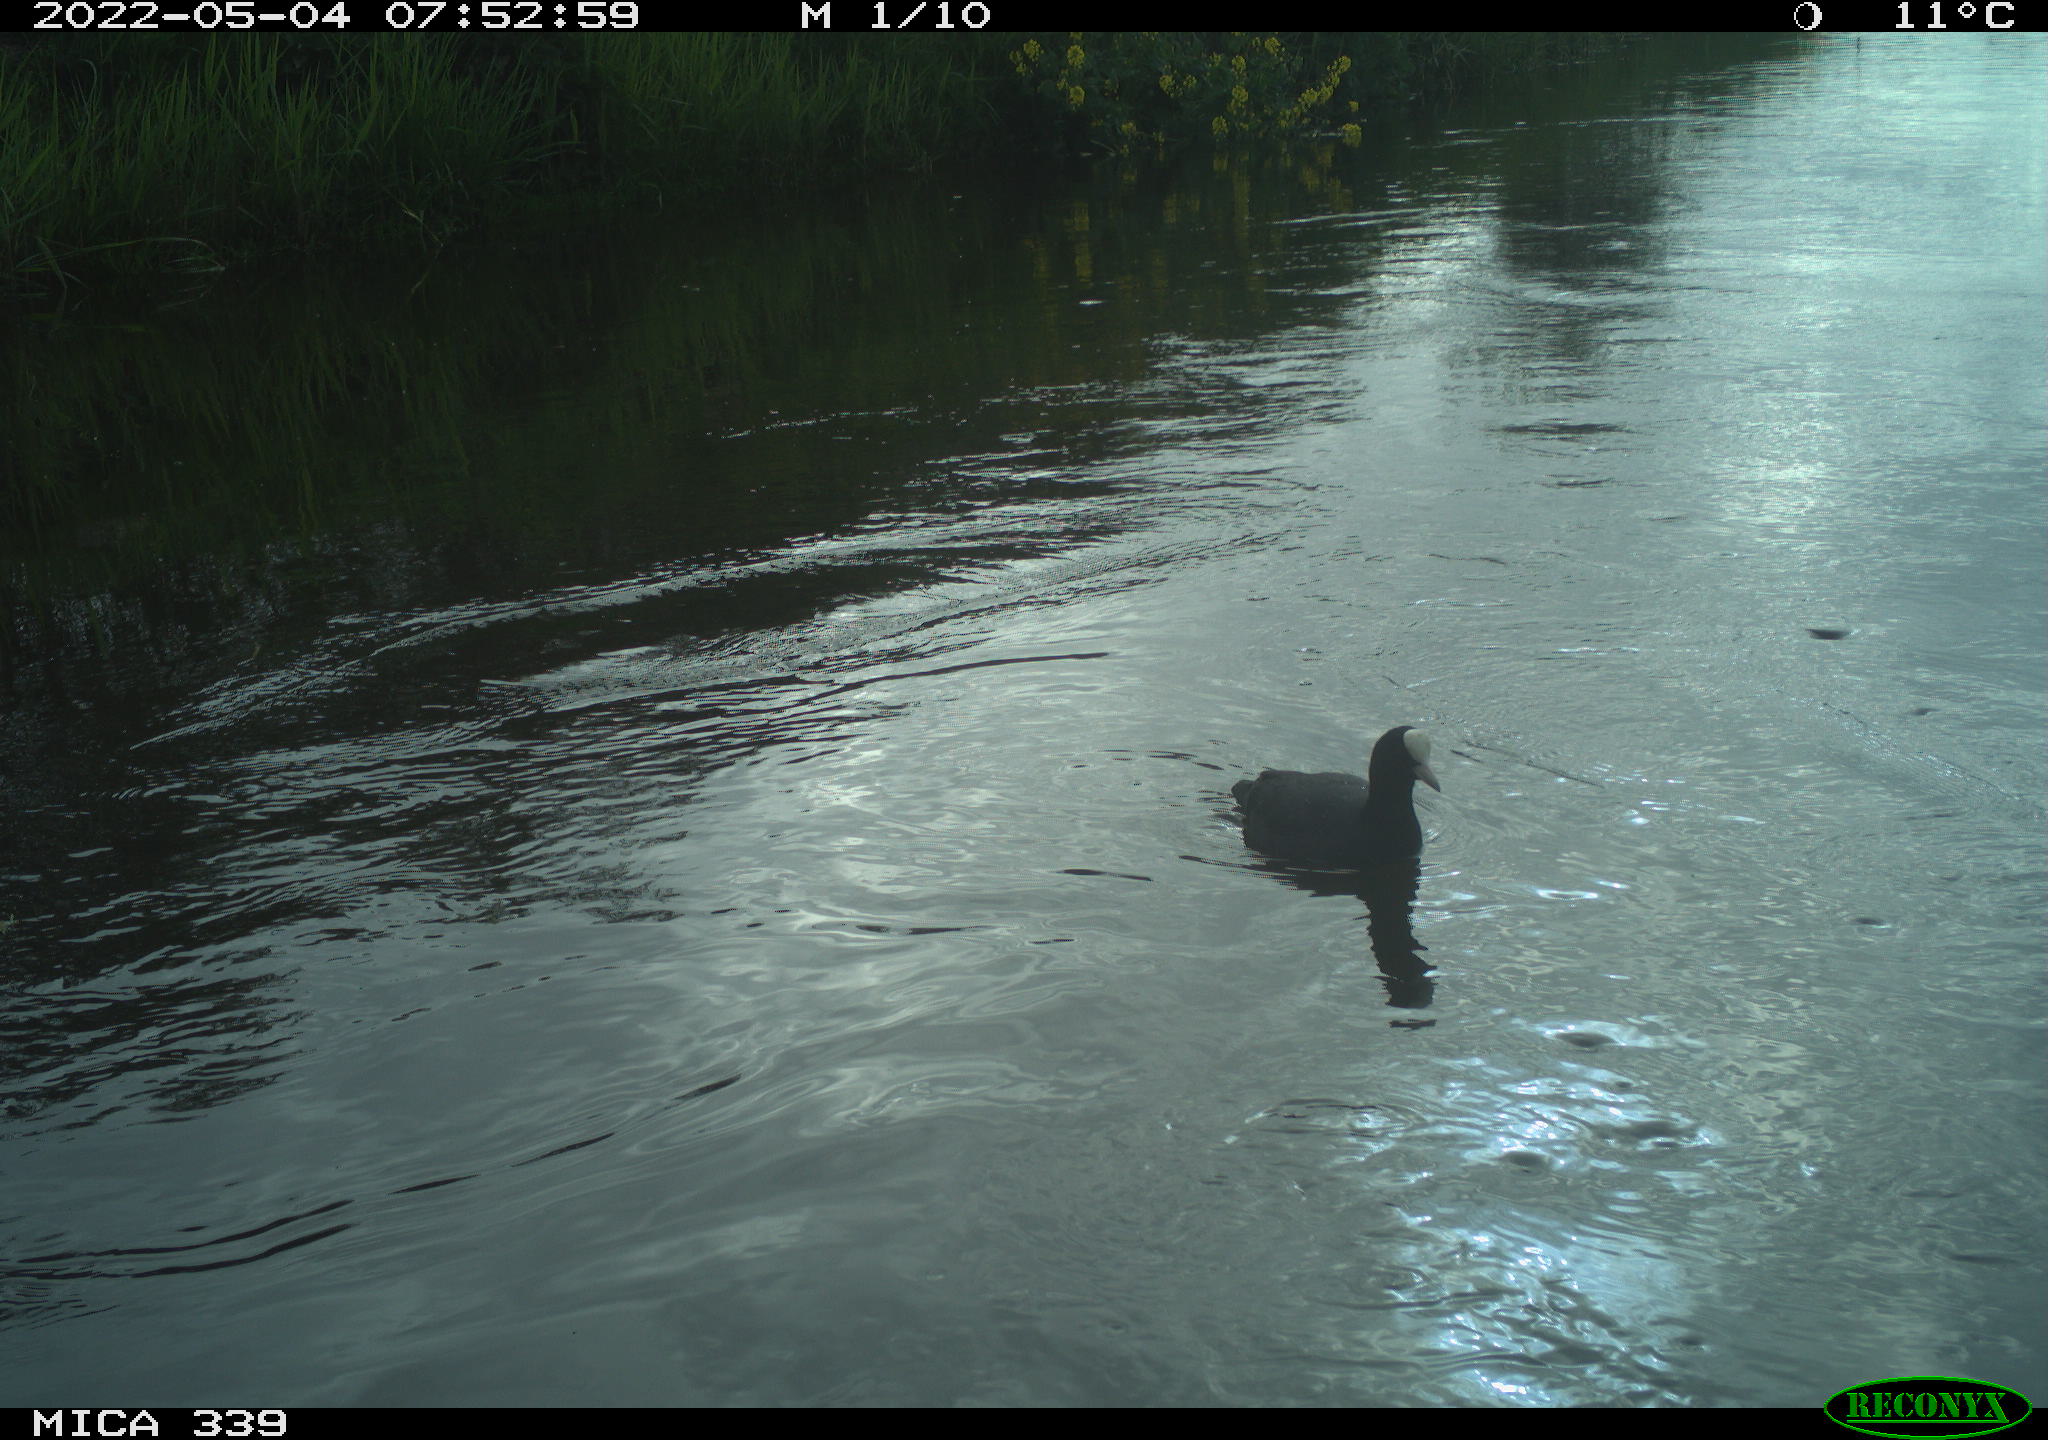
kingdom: Animalia
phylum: Chordata
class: Aves
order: Gruiformes
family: Rallidae
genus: Fulica
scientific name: Fulica atra
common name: Eurasian coot
